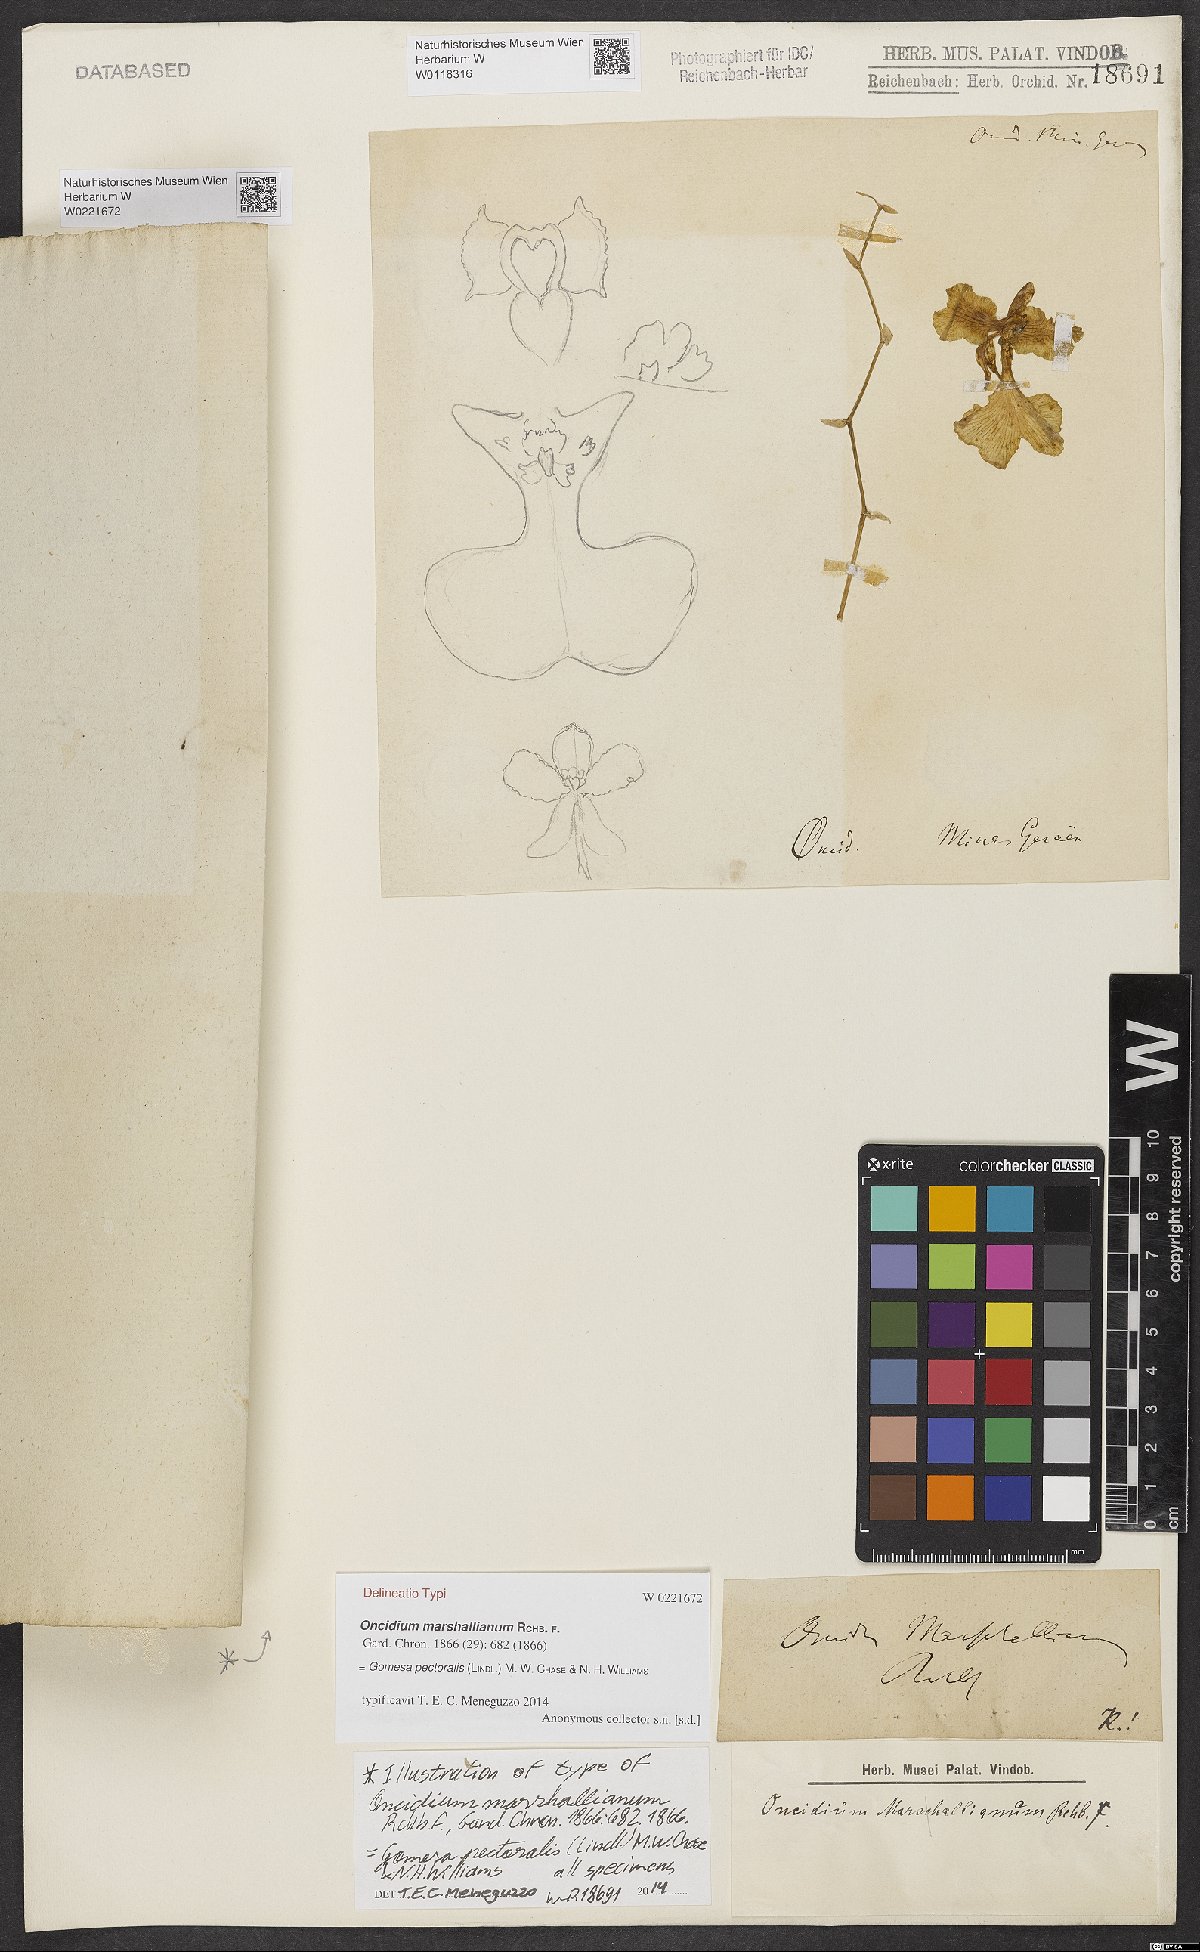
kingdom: Plantae
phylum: Tracheophyta
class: Liliopsida
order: Asparagales
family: Orchidaceae
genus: Gomesa
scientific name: Gomesa pectoralis
